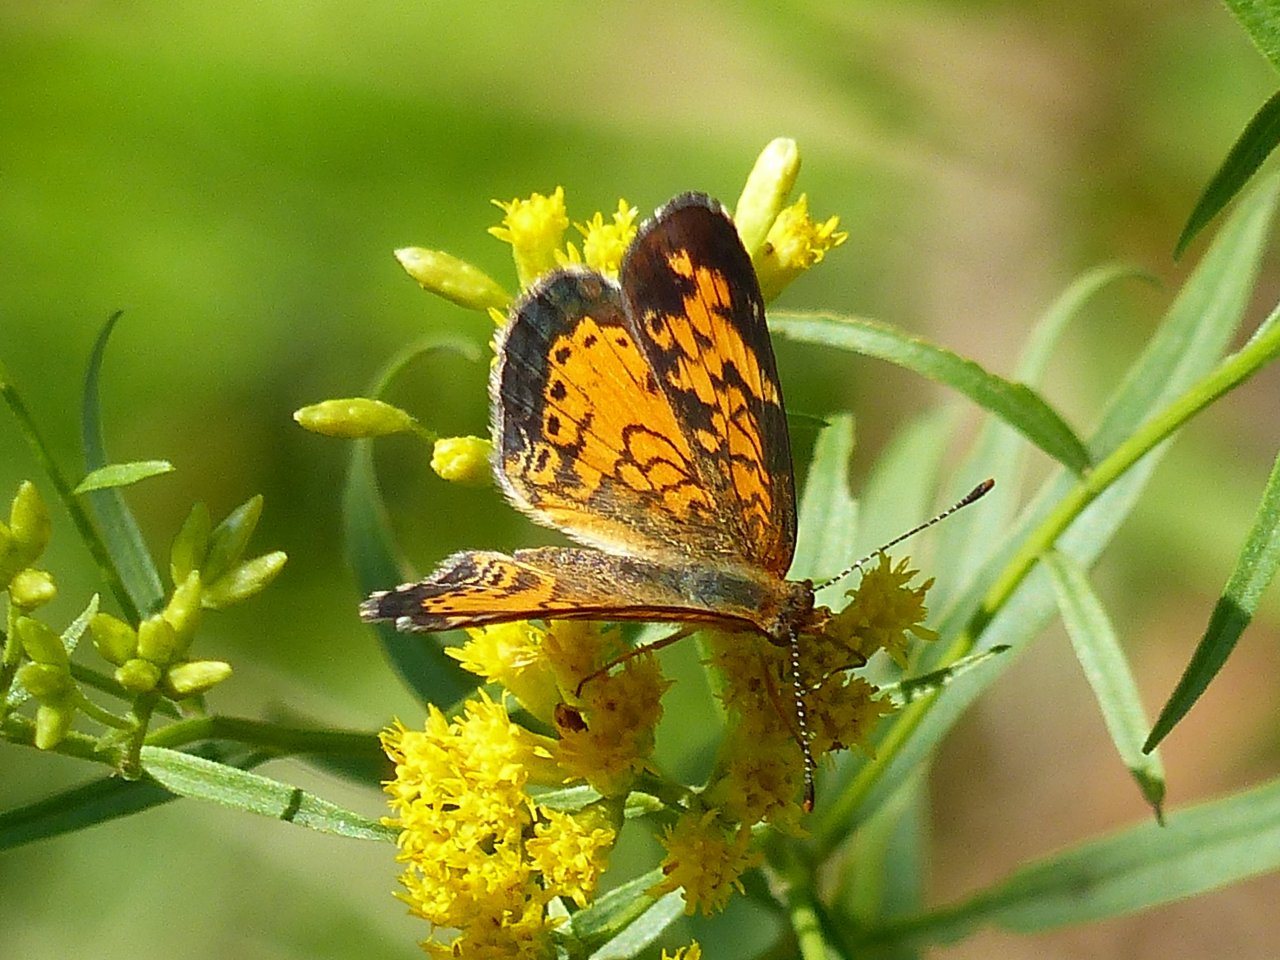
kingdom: Animalia
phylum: Arthropoda
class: Insecta
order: Lepidoptera
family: Nymphalidae
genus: Phyciodes
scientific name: Phyciodes tharos
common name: Northern Crescent
